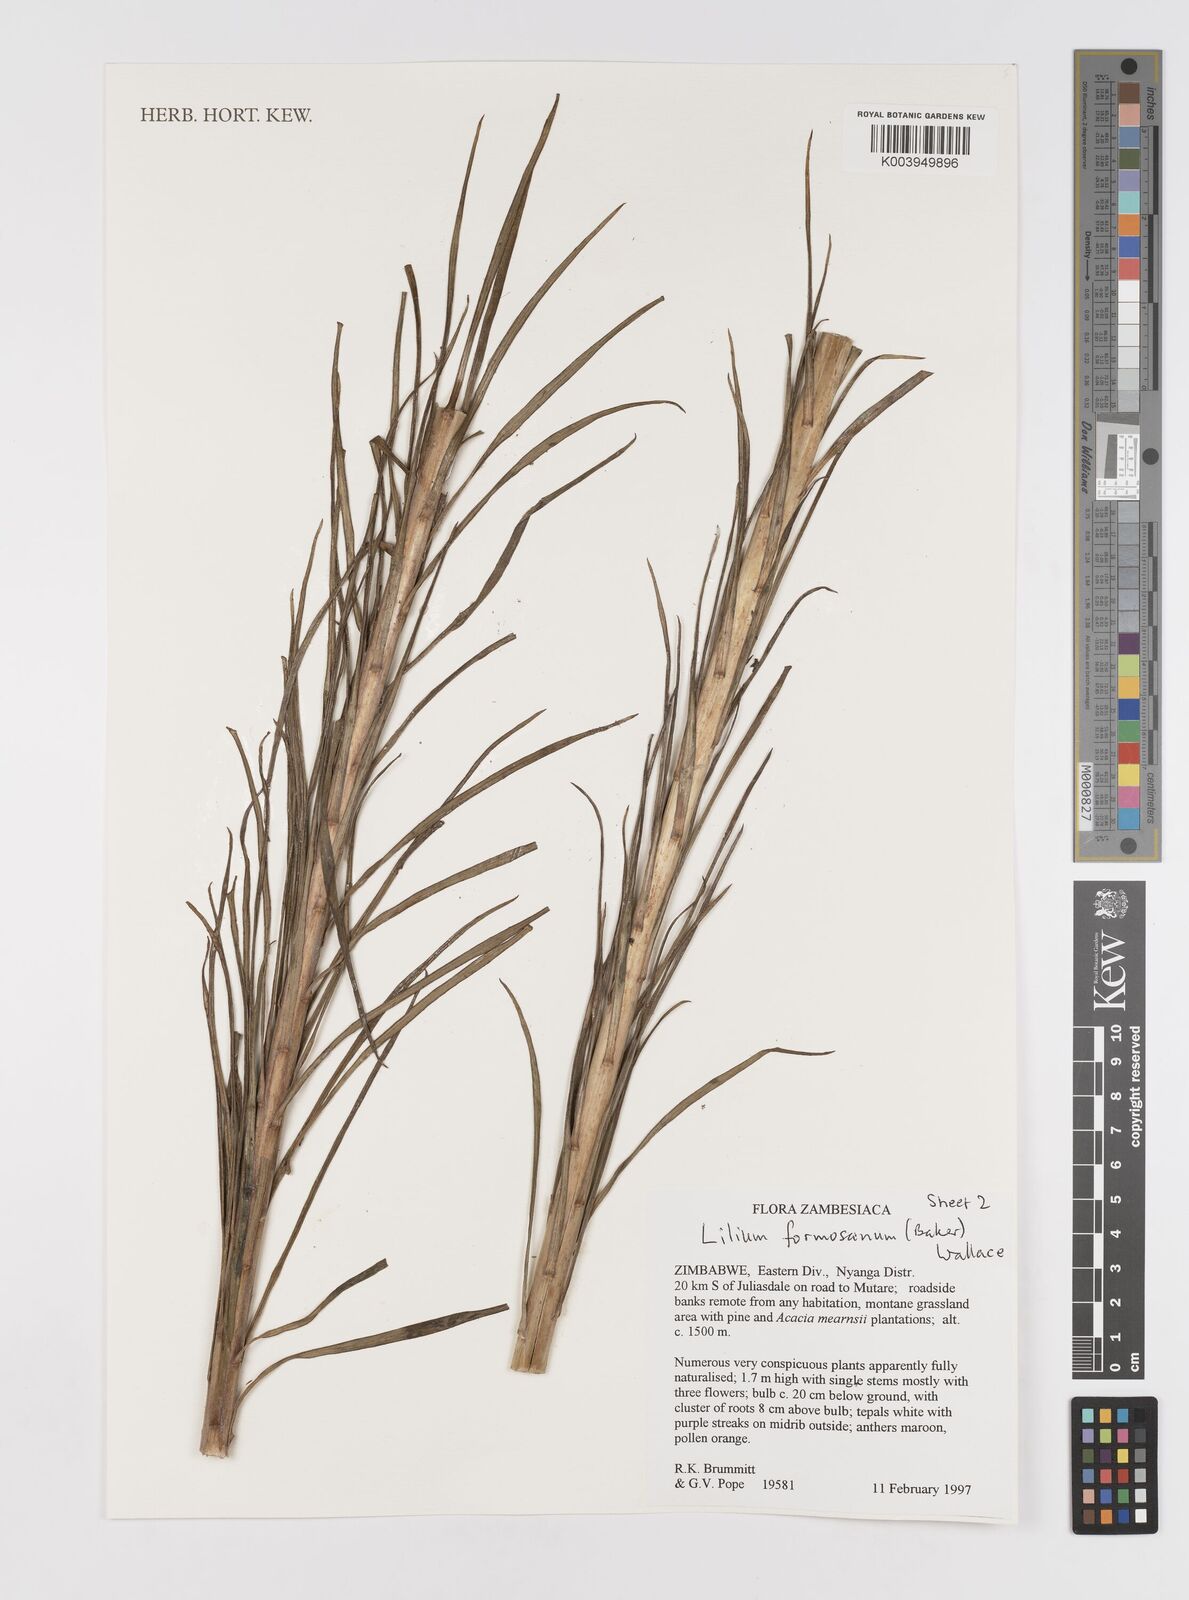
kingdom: Plantae
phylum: Tracheophyta
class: Liliopsida
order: Liliales
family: Liliaceae
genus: Lilium
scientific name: Lilium formosanum
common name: Formosa lily
